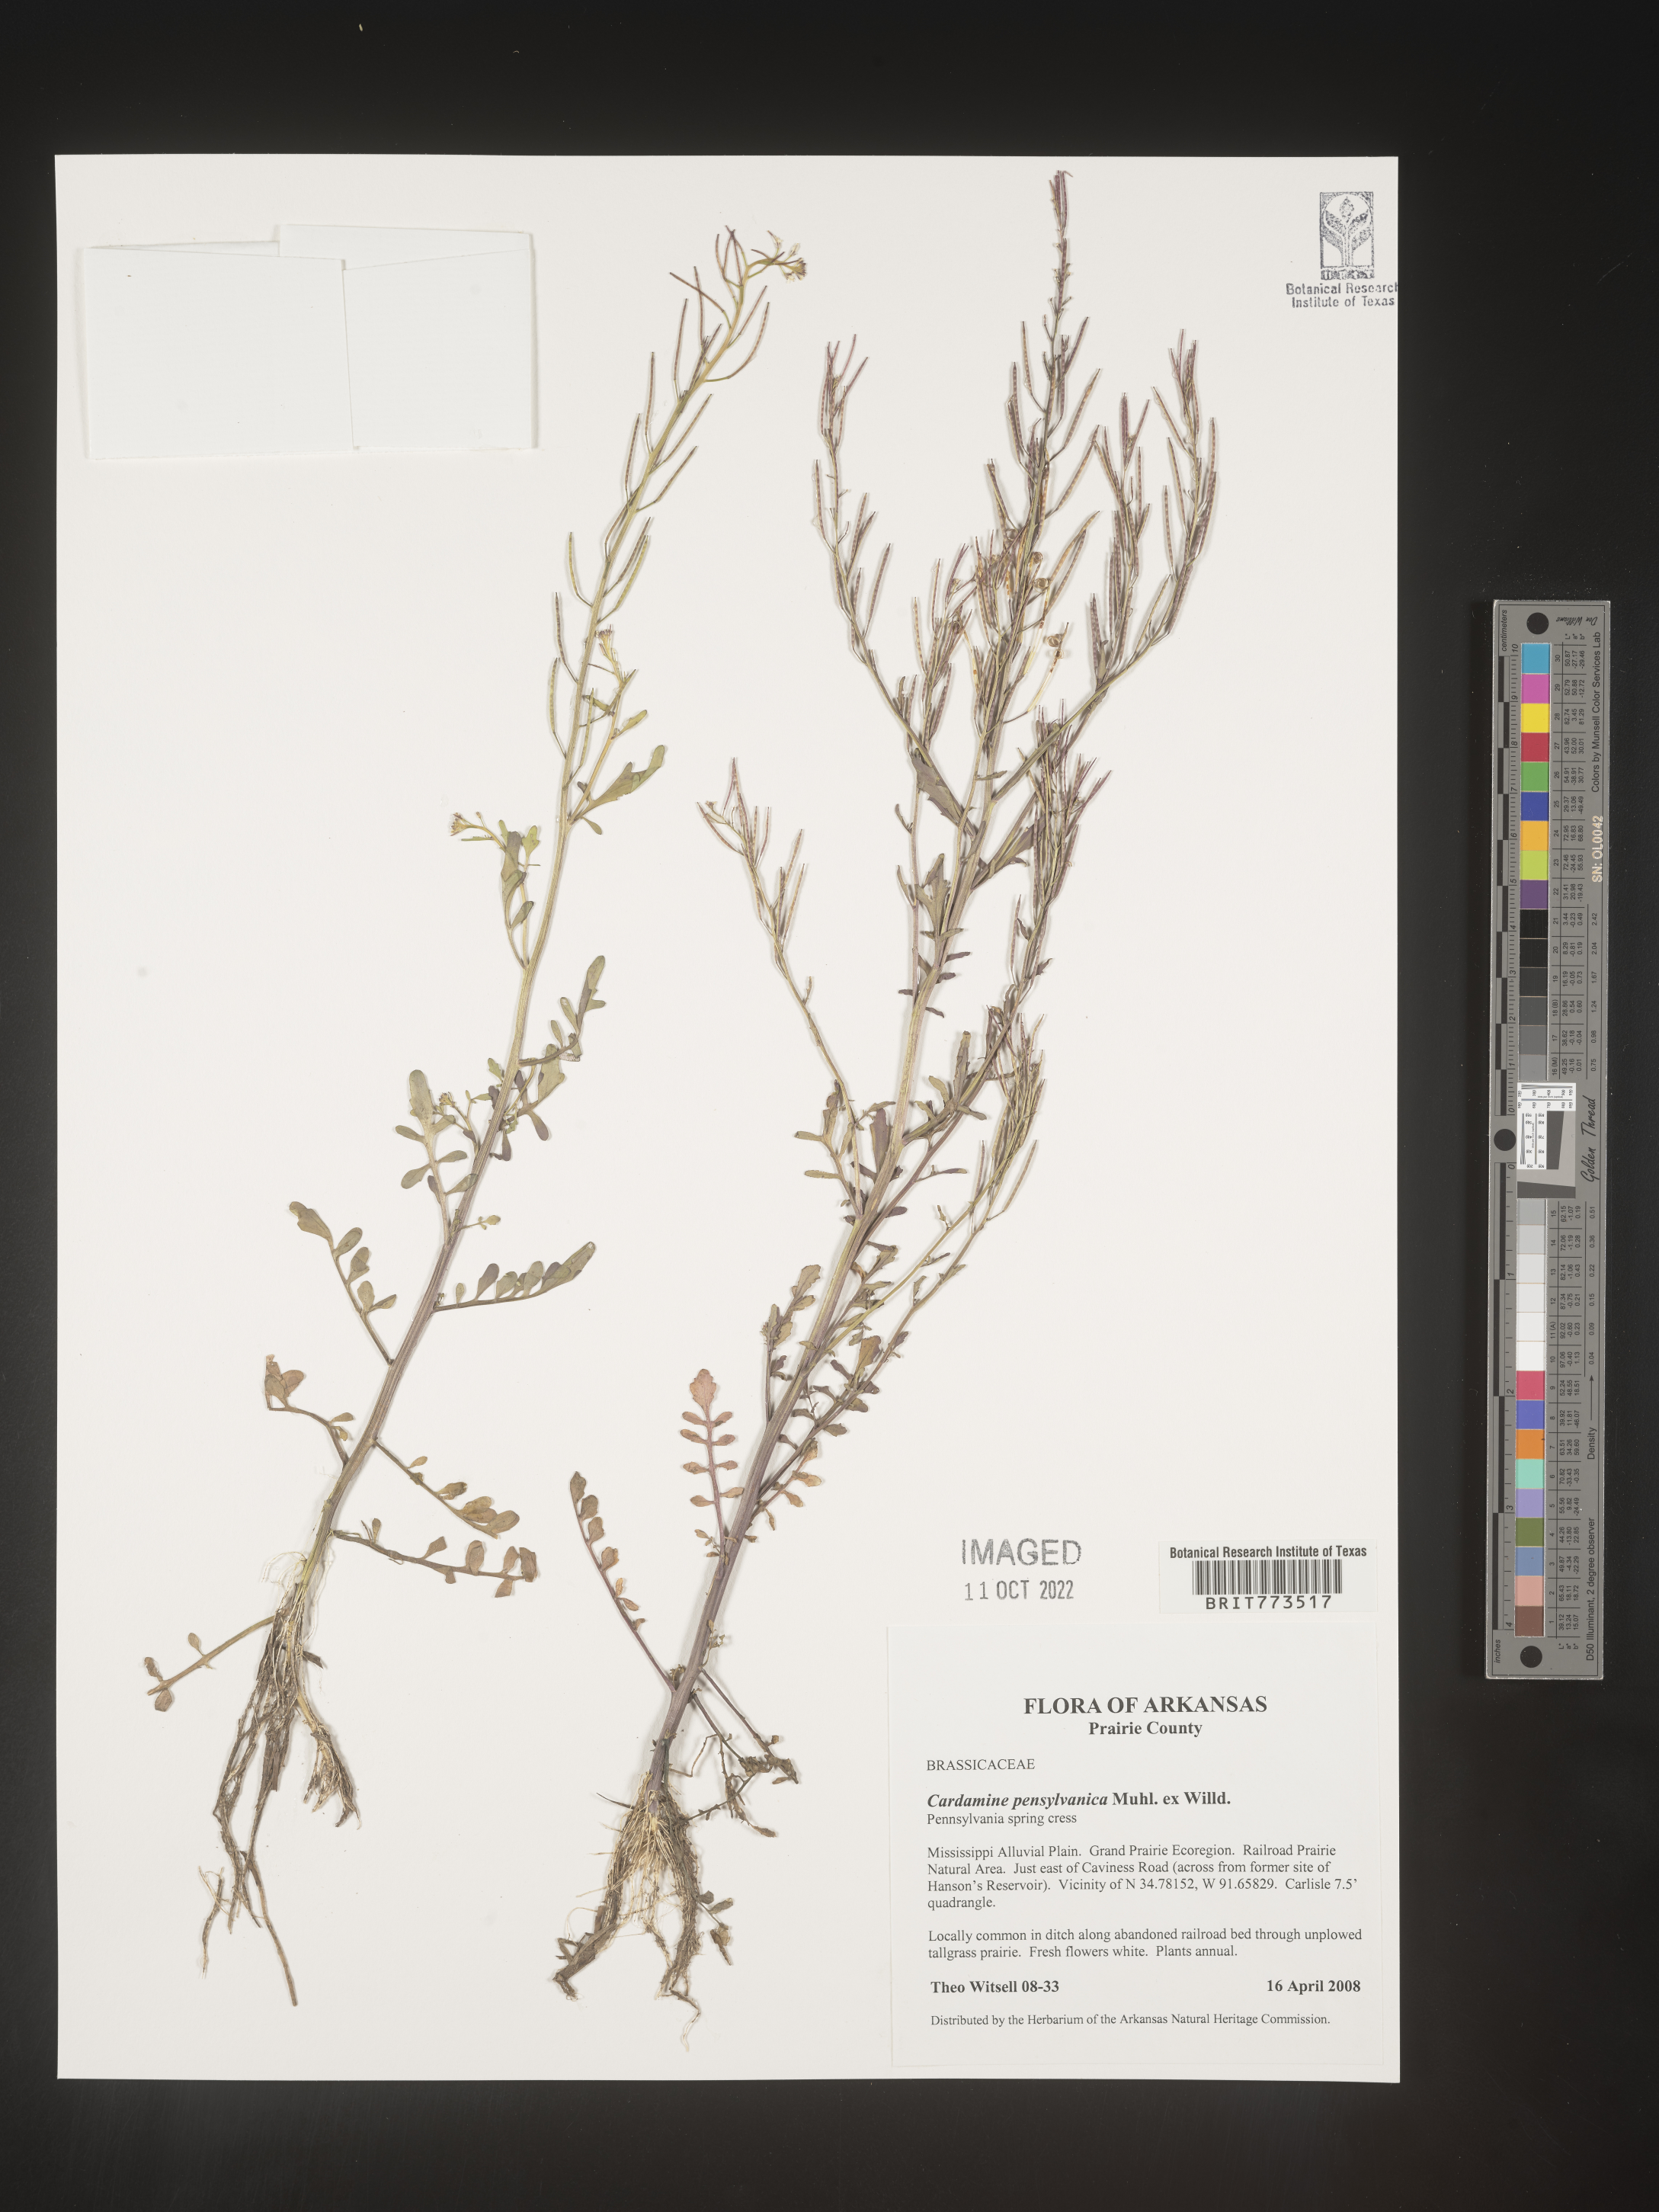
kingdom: Plantae
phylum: Tracheophyta
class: Magnoliopsida
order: Brassicales
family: Brassicaceae
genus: Cardamine
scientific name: Cardamine pensylvanica
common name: Pennsylvania bittercress
